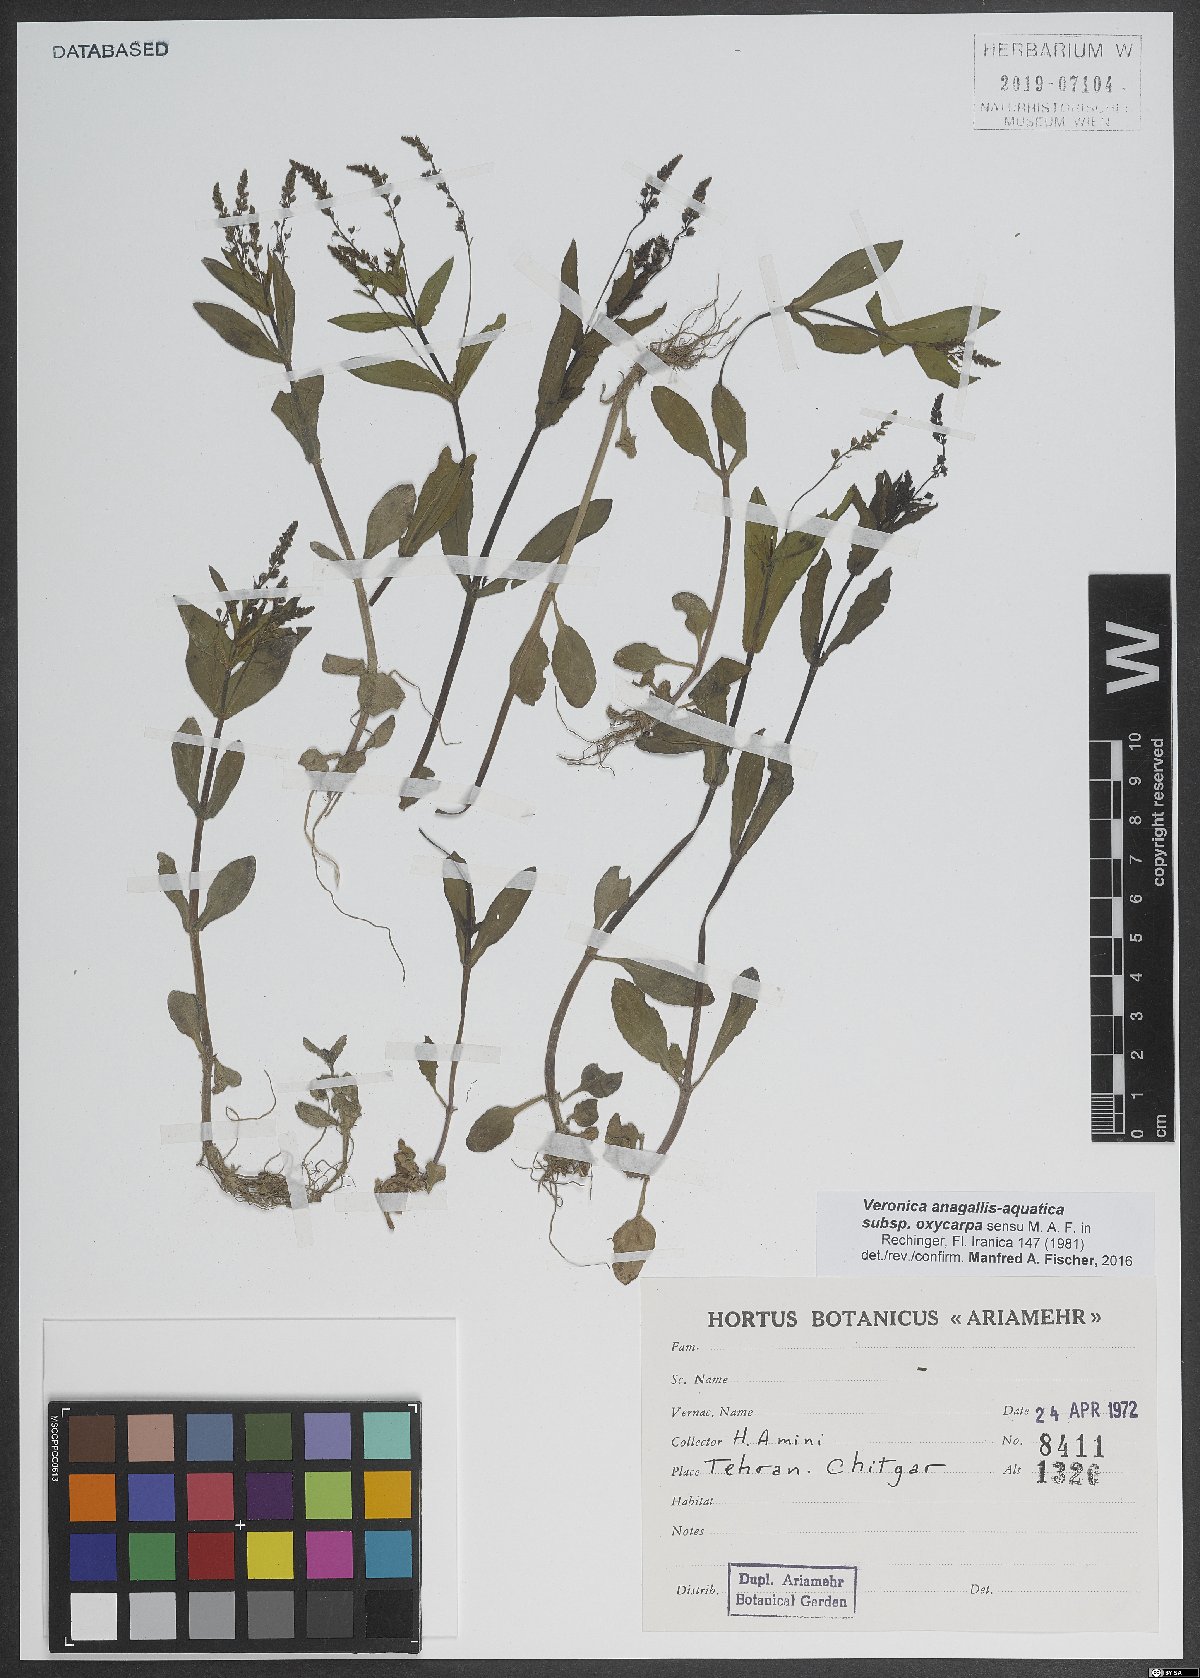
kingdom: Plantae
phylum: Tracheophyta
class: Magnoliopsida
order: Lamiales
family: Plantaginaceae
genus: Veronica
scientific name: Veronica oxycarpa
